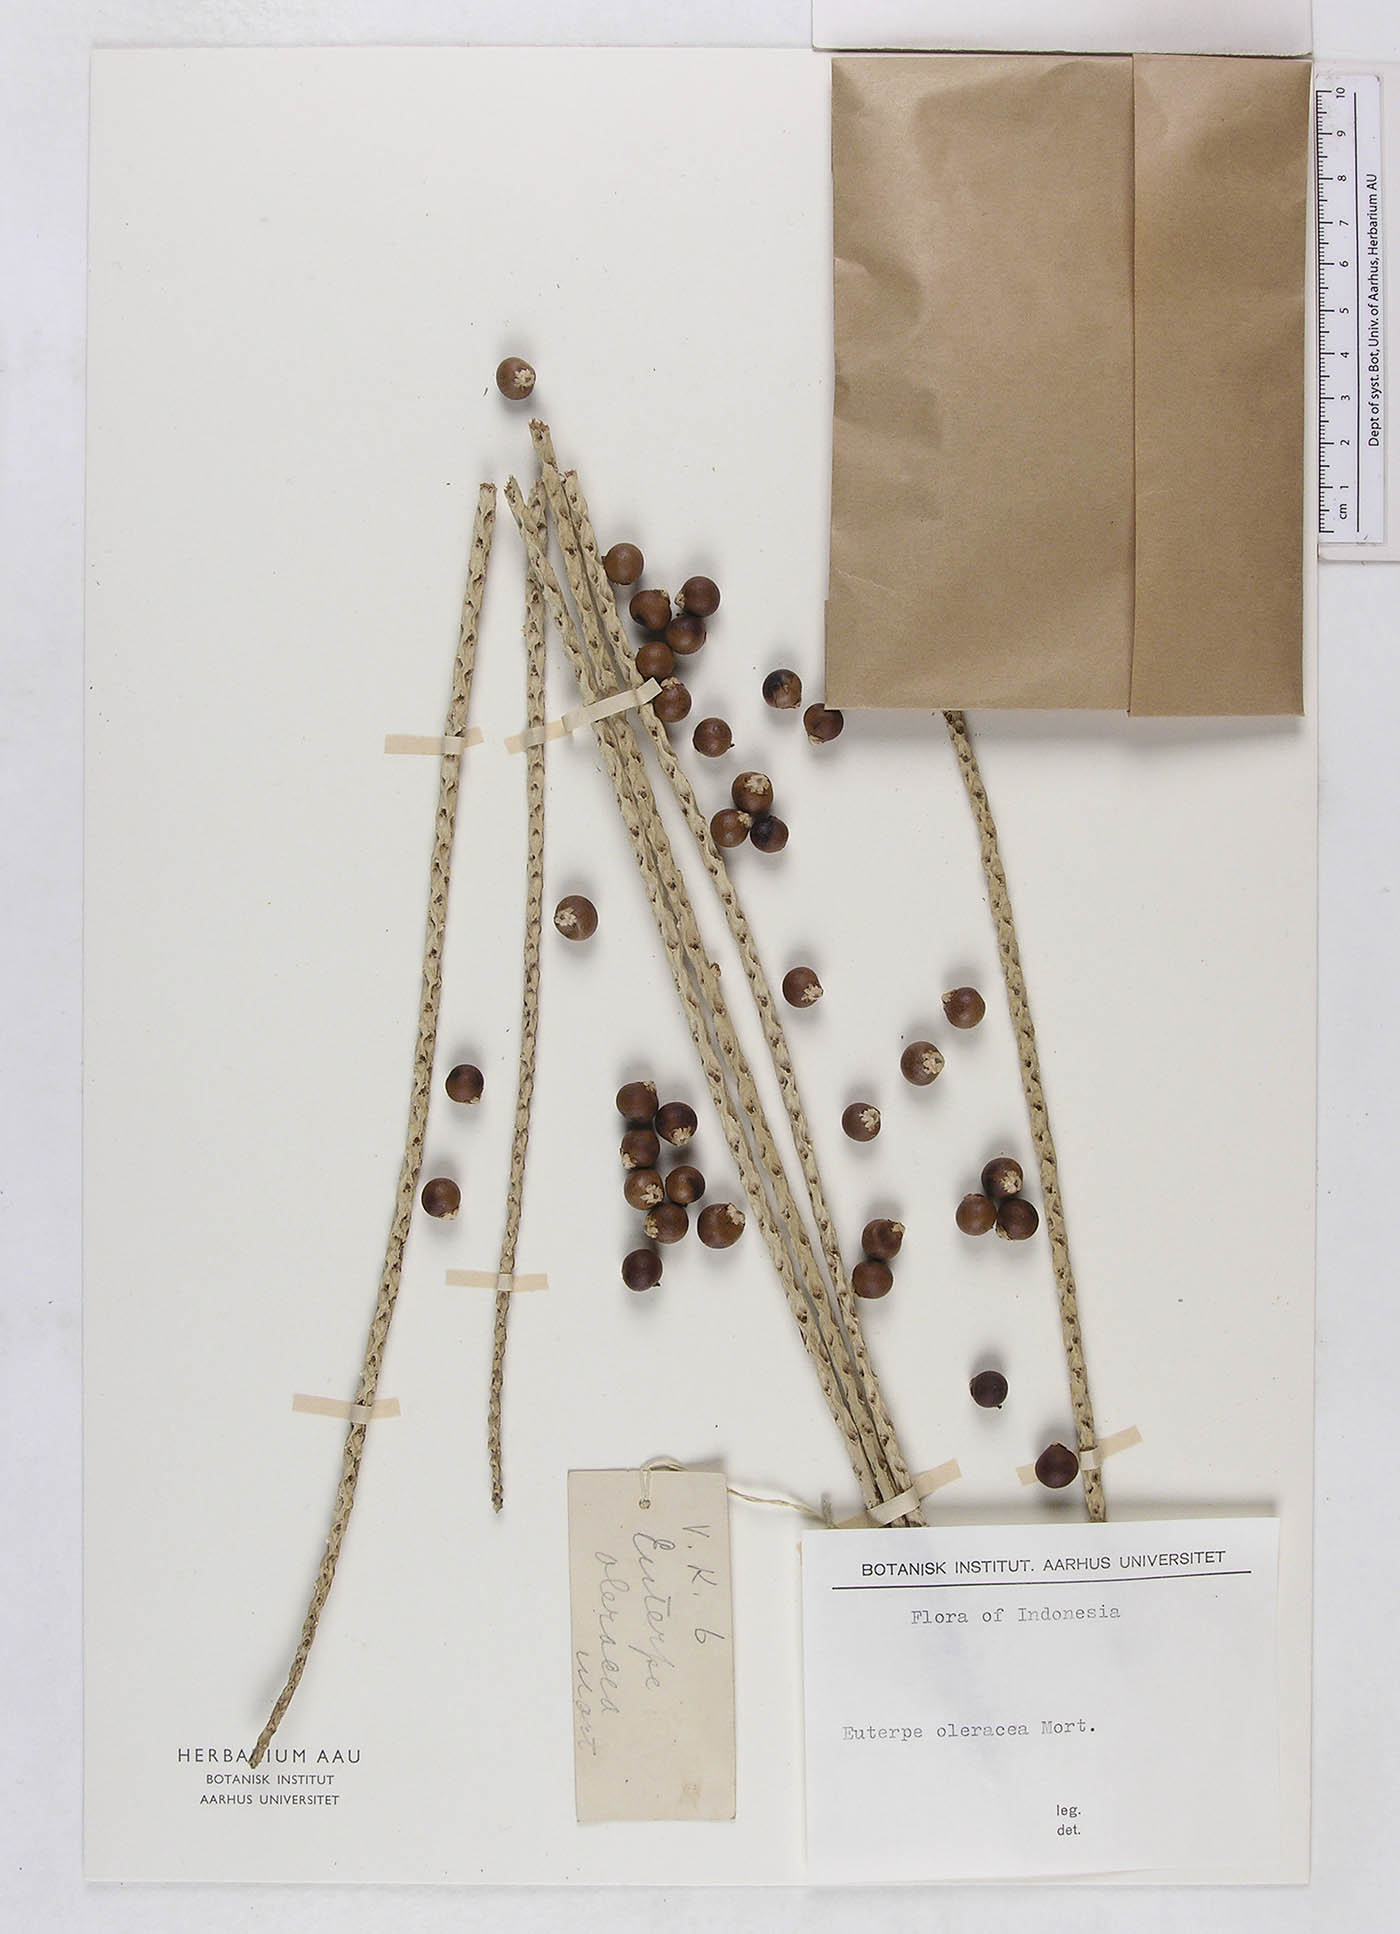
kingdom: Plantae
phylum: Tracheophyta
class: Liliopsida
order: Arecales
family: Arecaceae
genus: Euterpe
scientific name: Euterpe oleracea
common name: Assai palm
